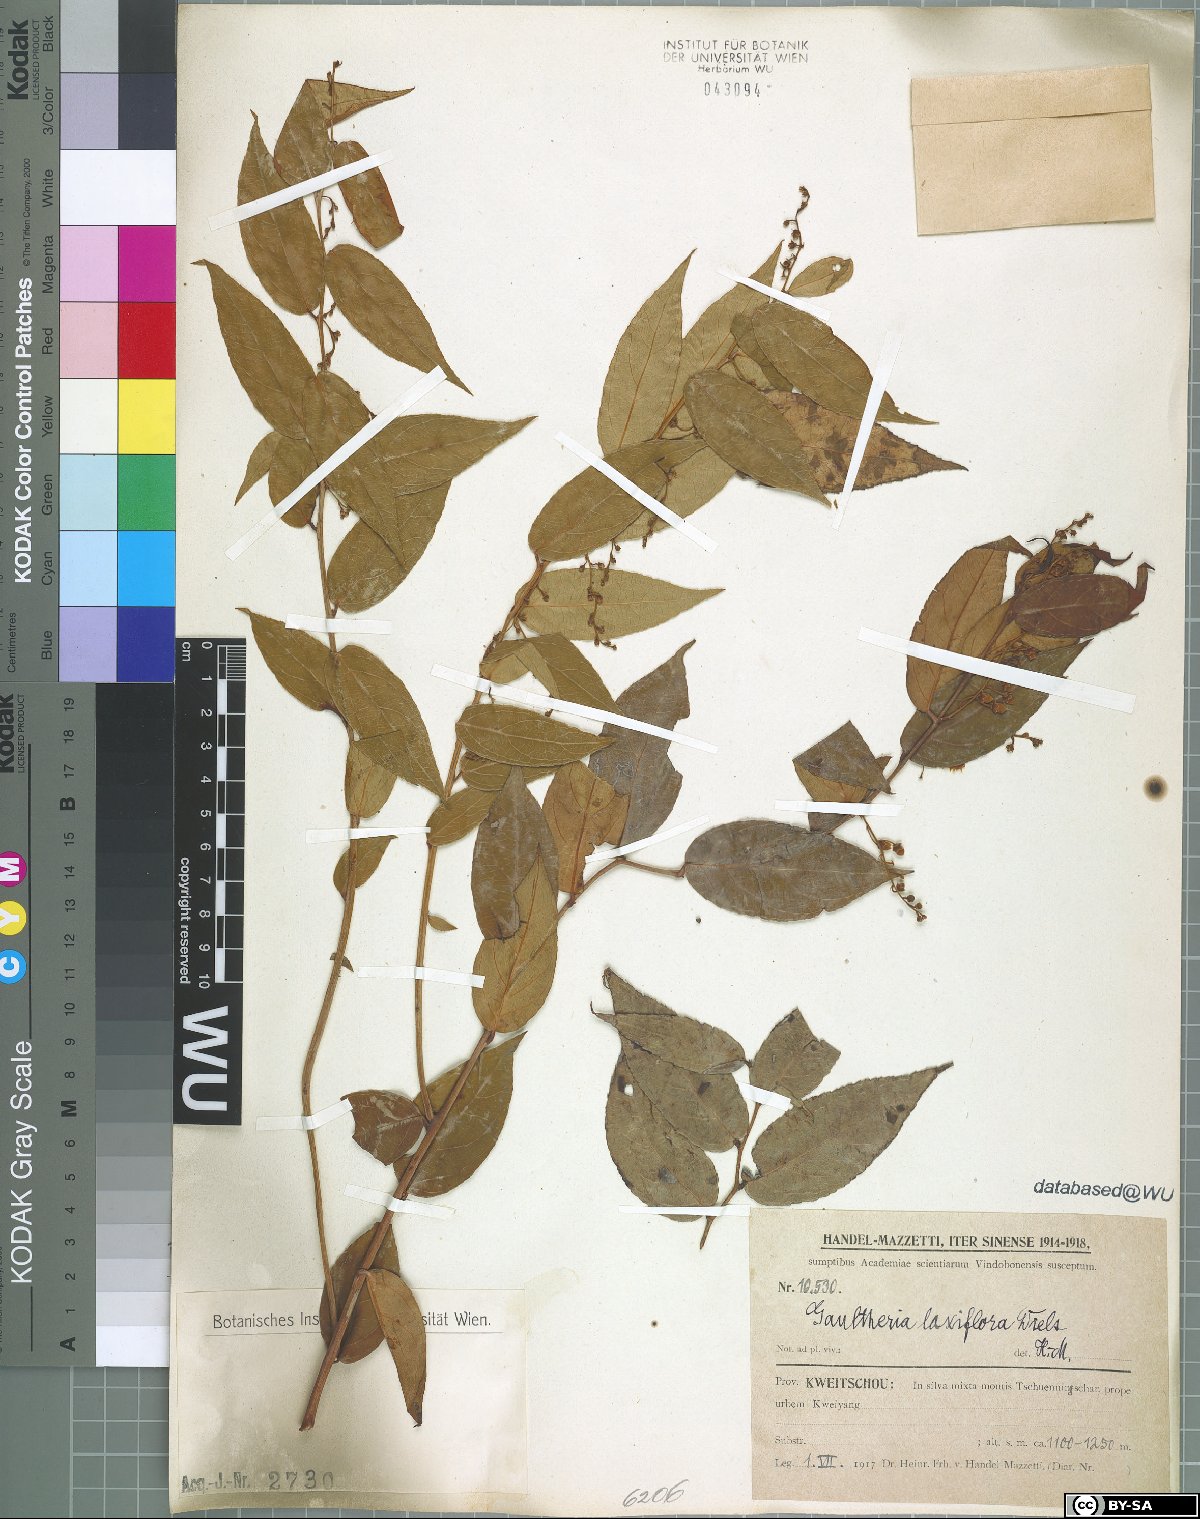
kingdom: Plantae
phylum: Tracheophyta
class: Magnoliopsida
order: Ericales
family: Ericaceae
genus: Gaultheria
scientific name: Gaultheria leucocarpa
